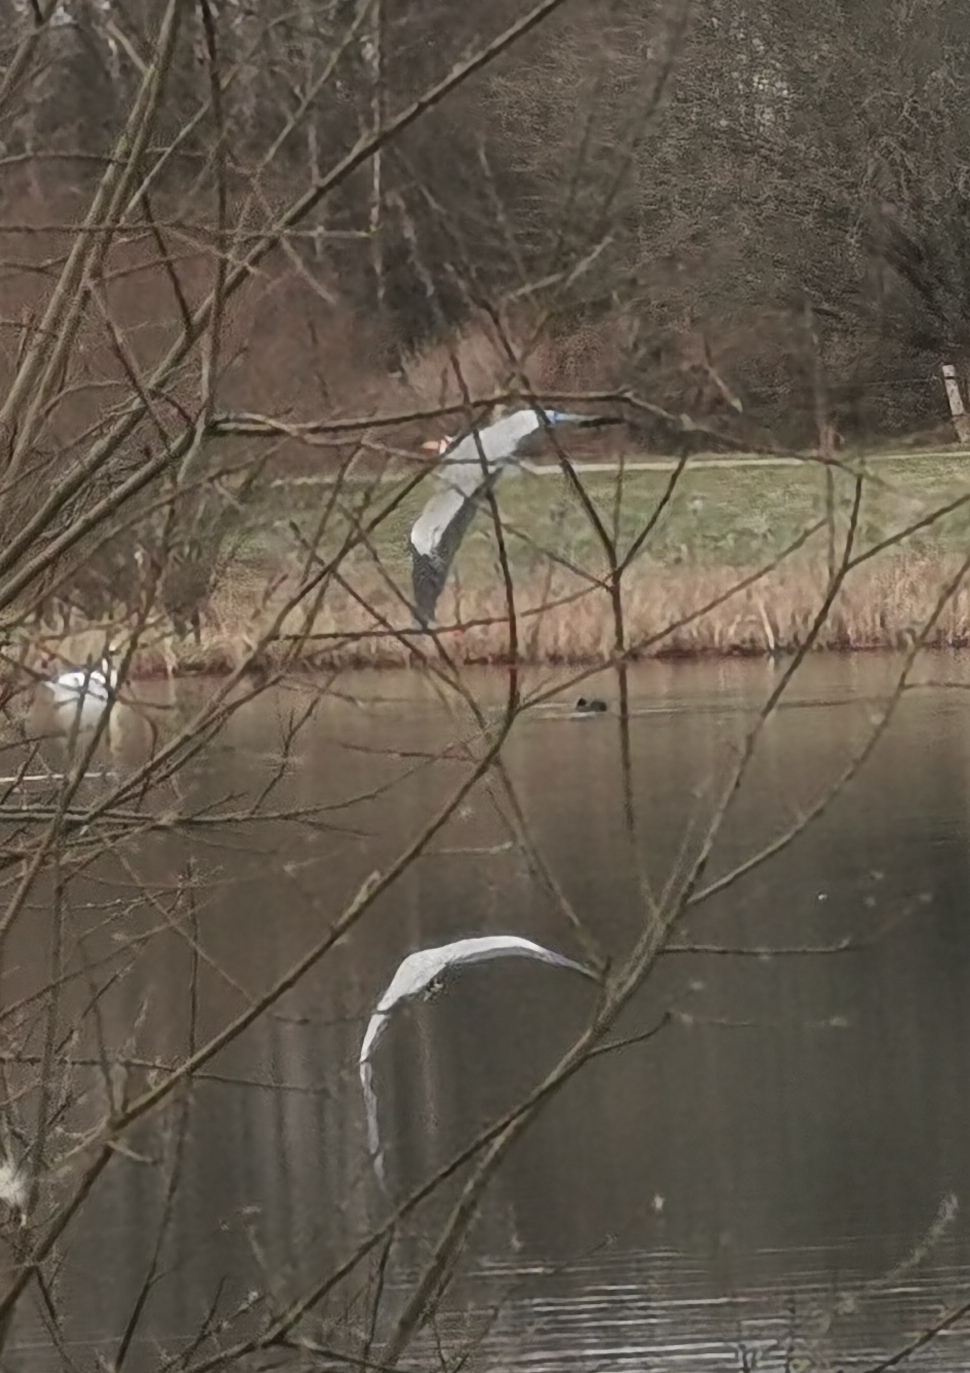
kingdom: Animalia
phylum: Chordata
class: Aves
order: Pelecaniformes
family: Ardeidae
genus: Ardea
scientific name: Ardea cinerea
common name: Fiskehejre
